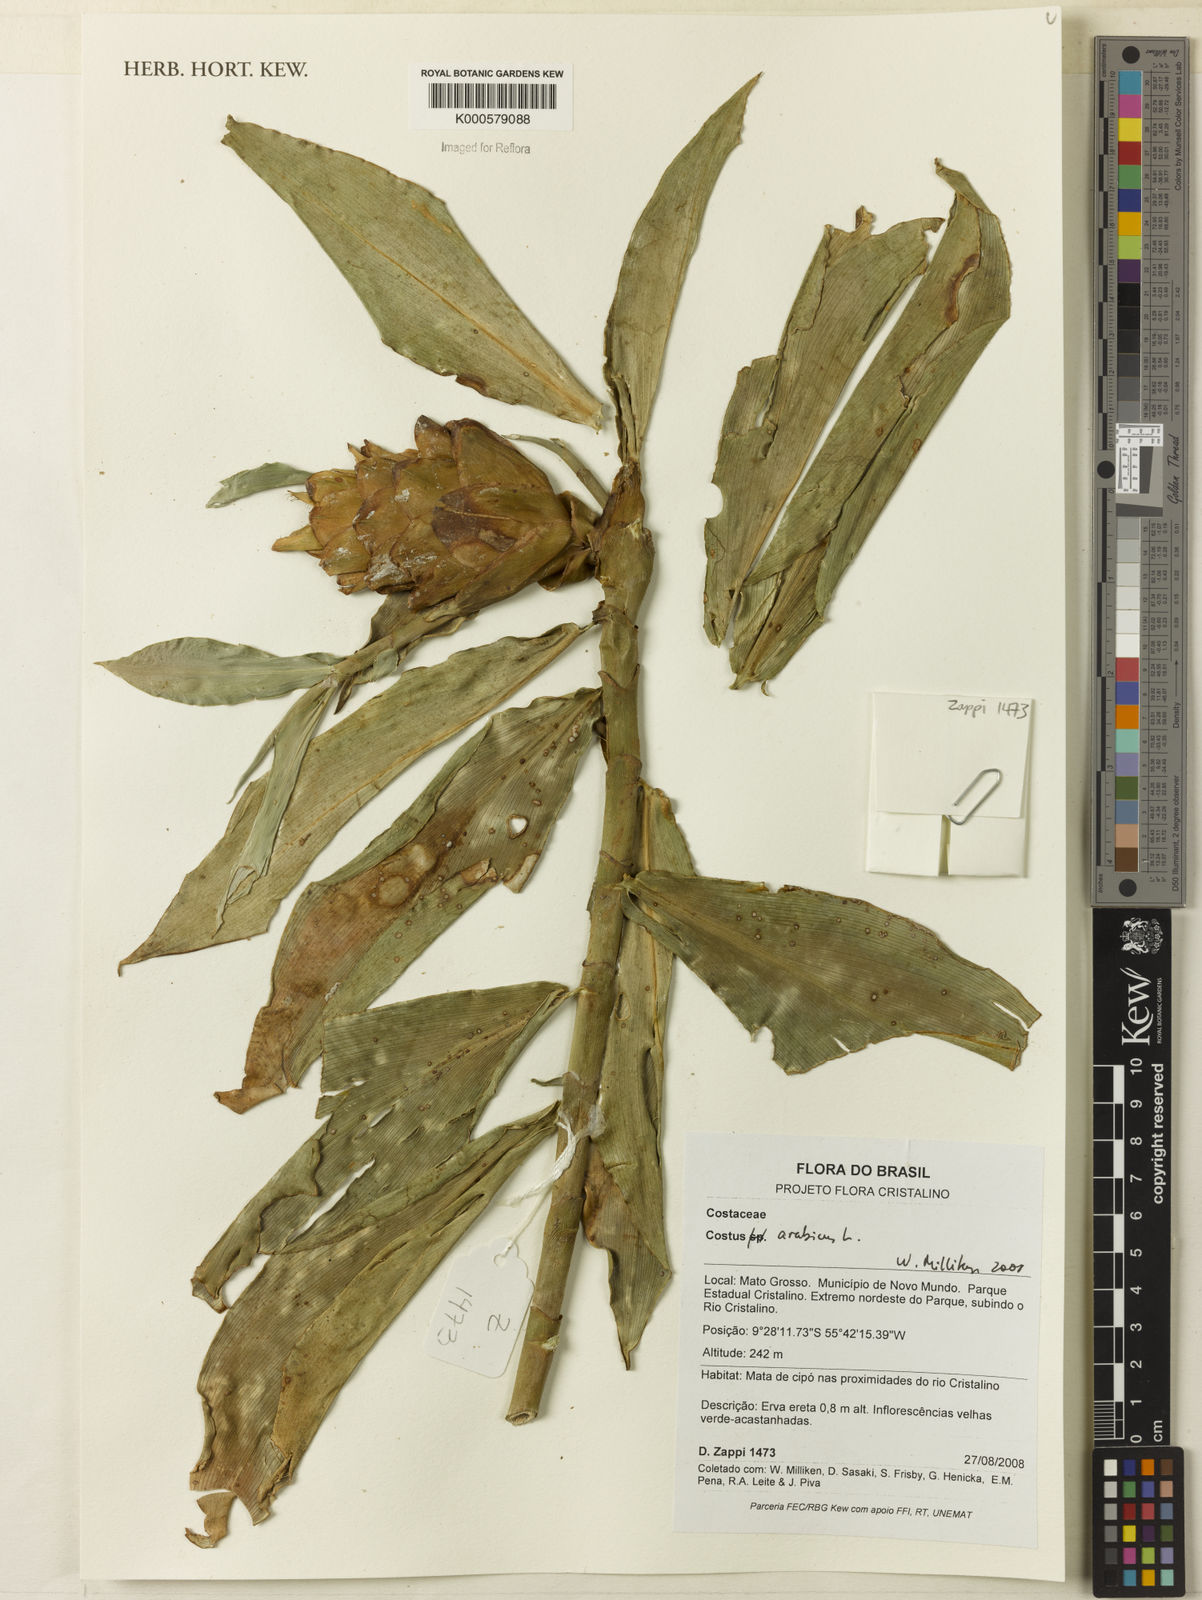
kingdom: Plantae
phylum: Tracheophyta
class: Liliopsida
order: Zingiberales
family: Costaceae
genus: Costus
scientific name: Costus arabicus
